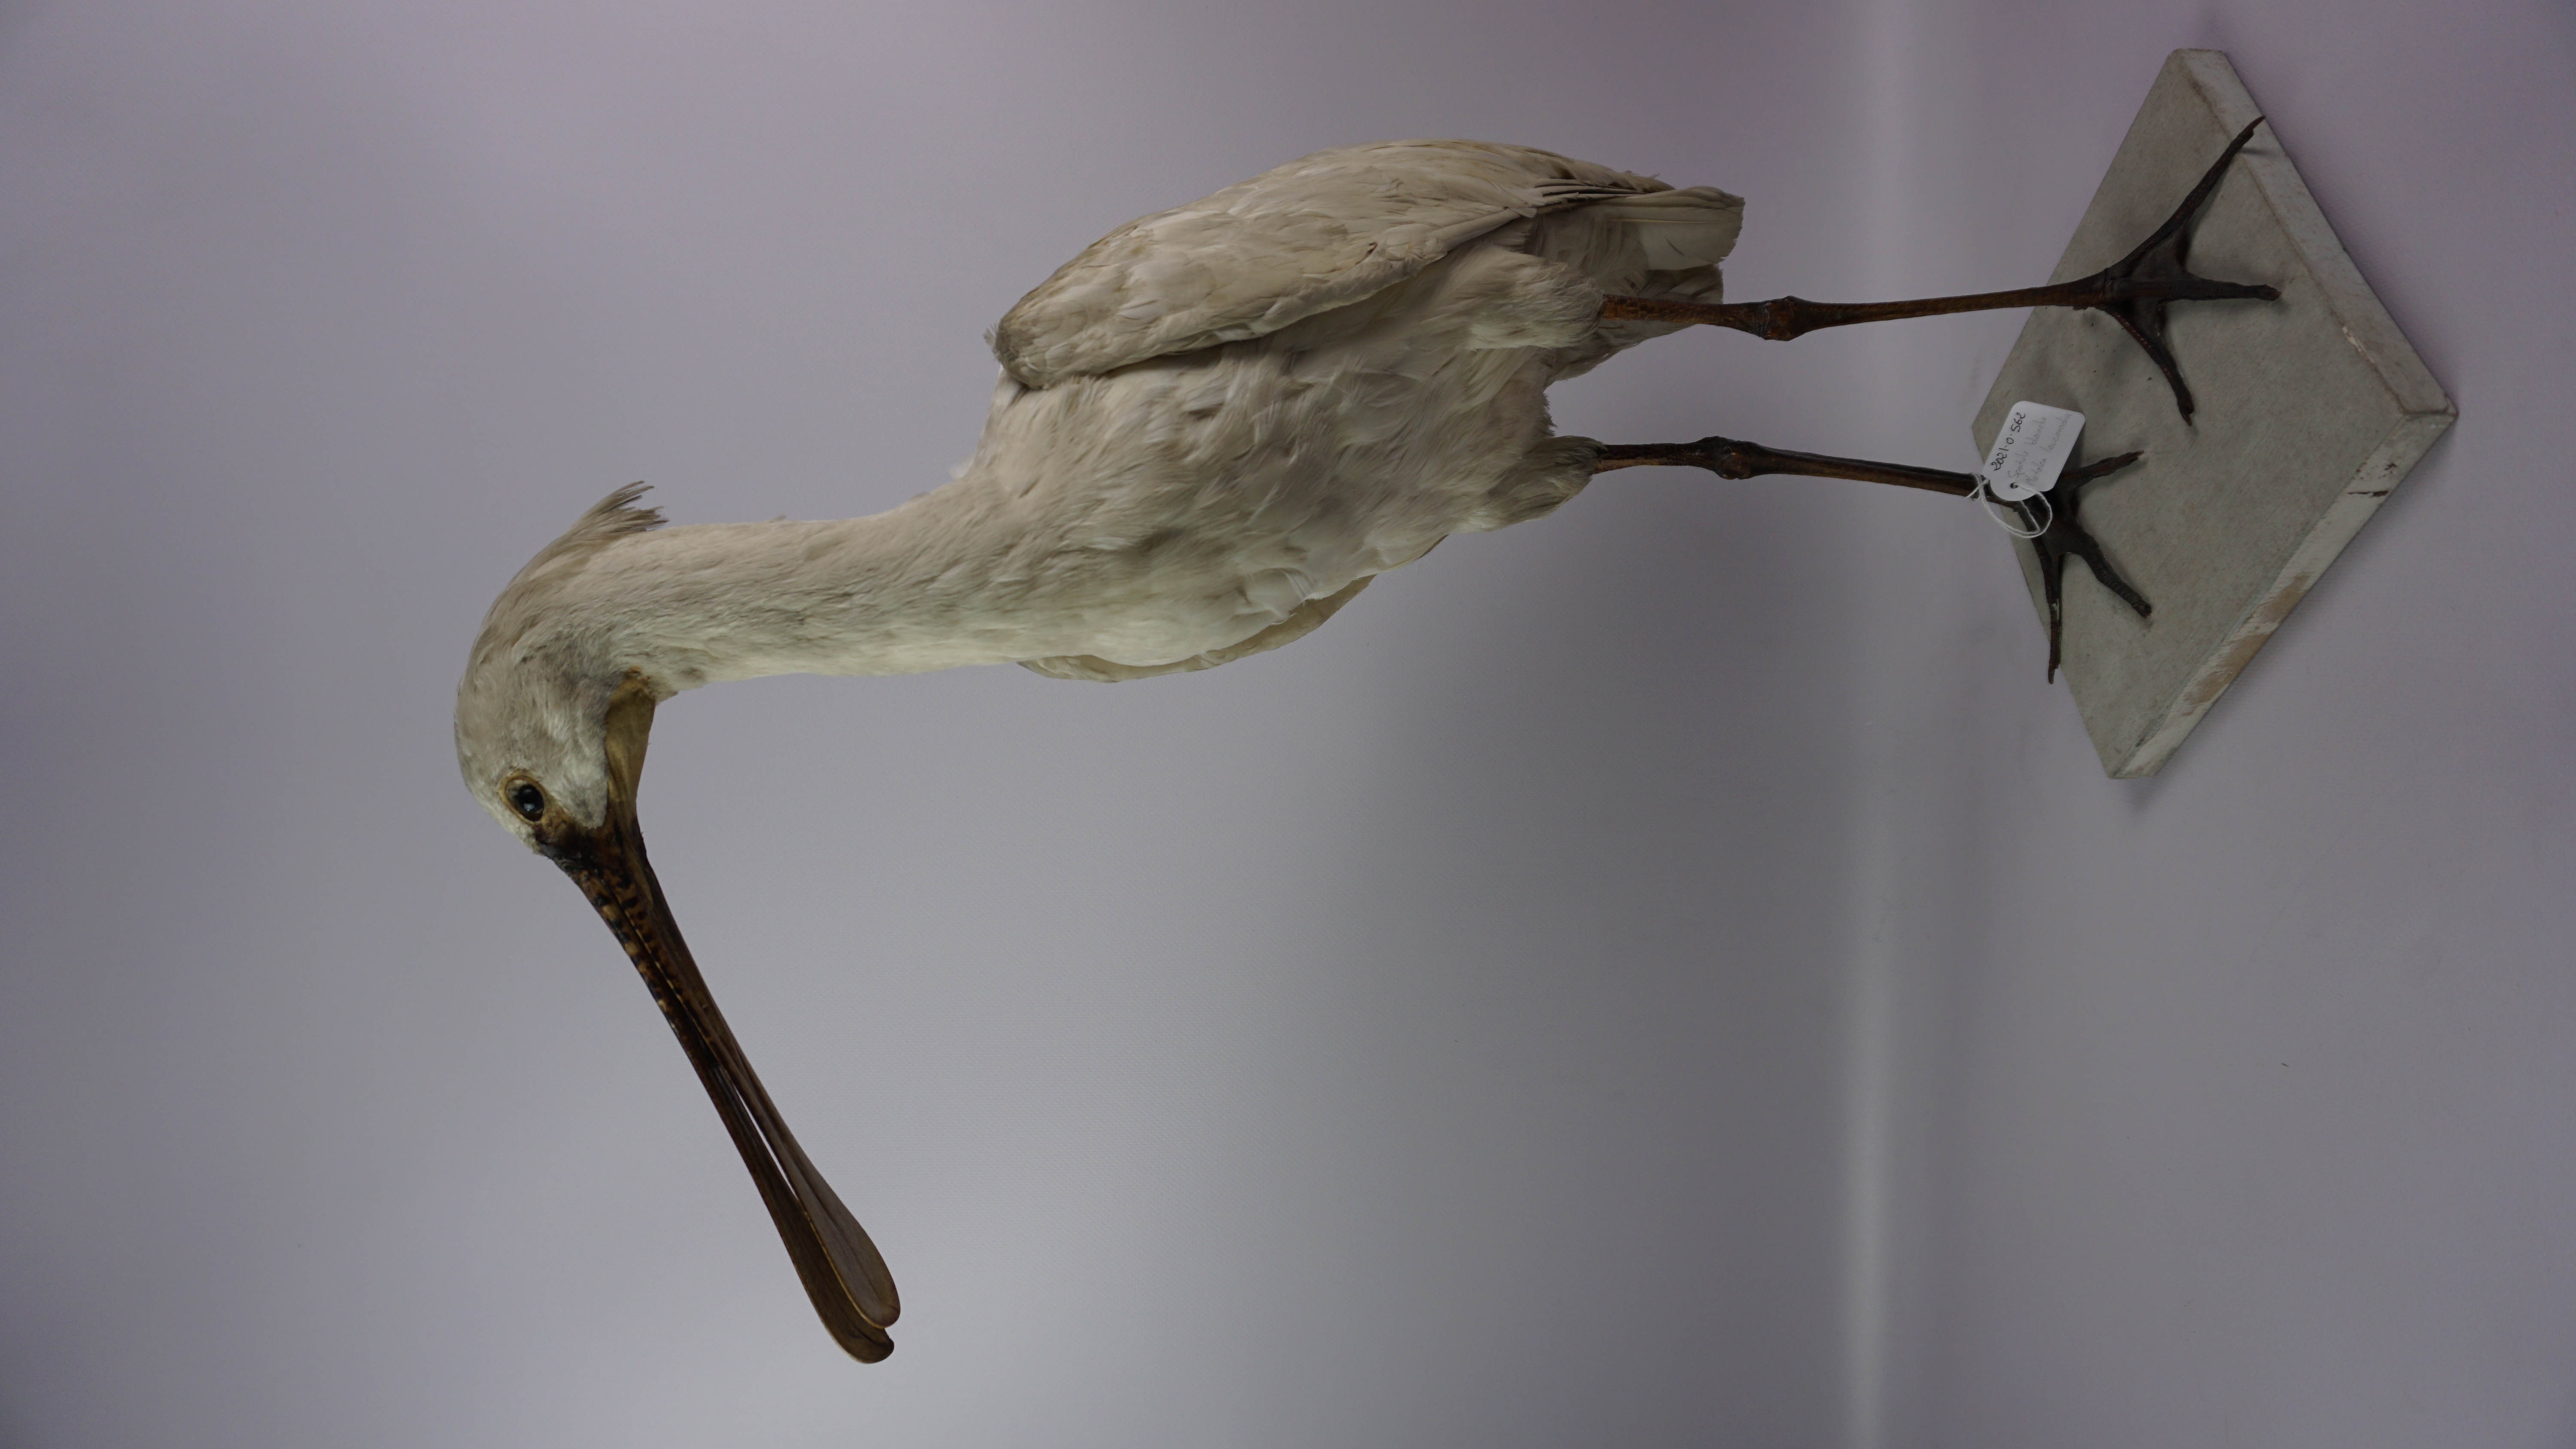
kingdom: Animalia
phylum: Chordata
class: Aves
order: Pelecaniformes
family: Threskiornithidae
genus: Platalea
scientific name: Platalea leucorodia
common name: Eurasian spoonbill
